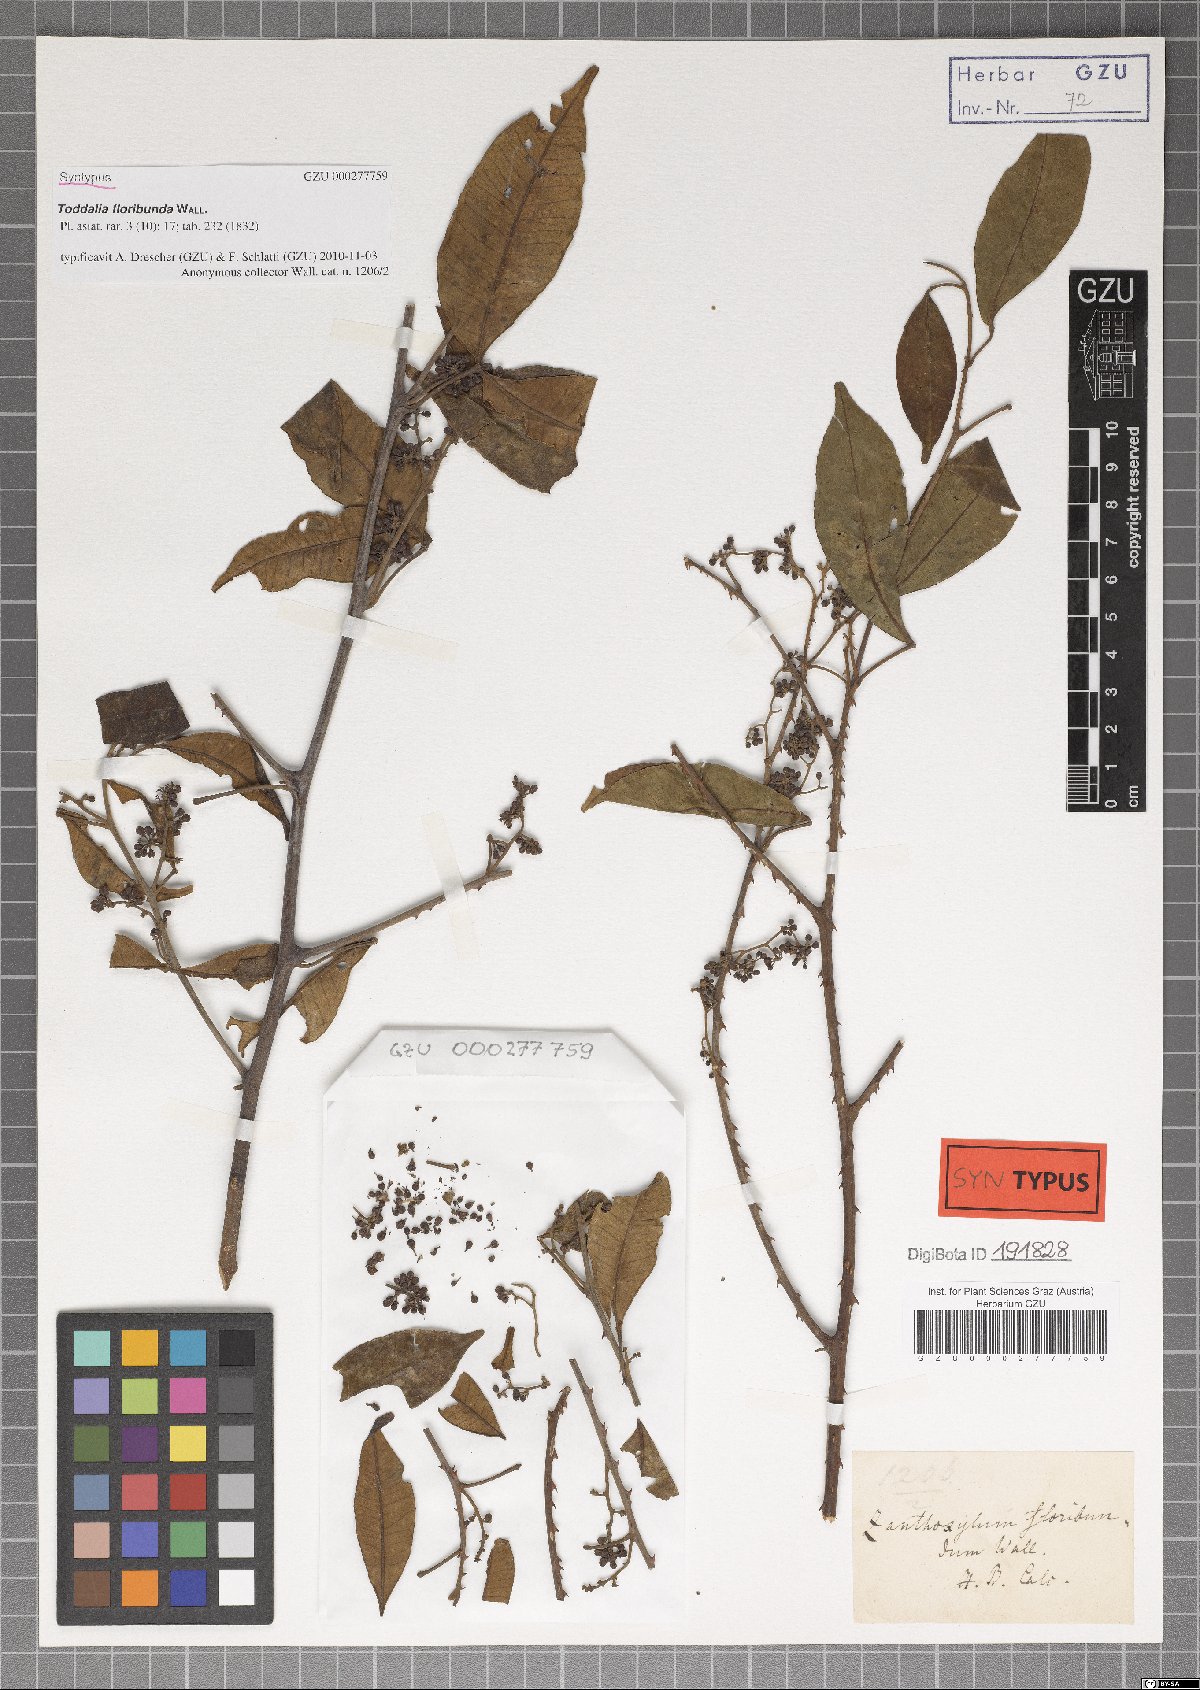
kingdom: Plantae
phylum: Tracheophyta
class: Magnoliopsida
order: Sapindales
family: Rutaceae
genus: Zanthoxylum
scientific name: Zanthoxylum asiaticum
